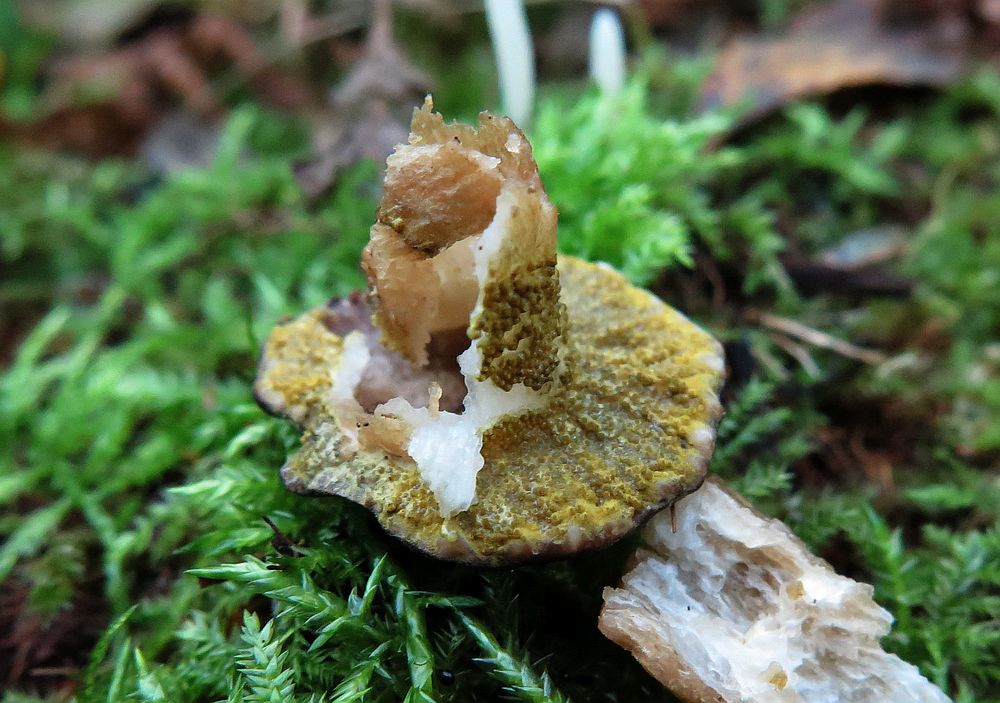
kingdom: Fungi
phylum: Ascomycota
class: Sordariomycetes
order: Hypocreales
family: Hypocreaceae
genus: Hypomyces
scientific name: Hypomyces luteovirens
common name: gulgrøn snylteskorpe
